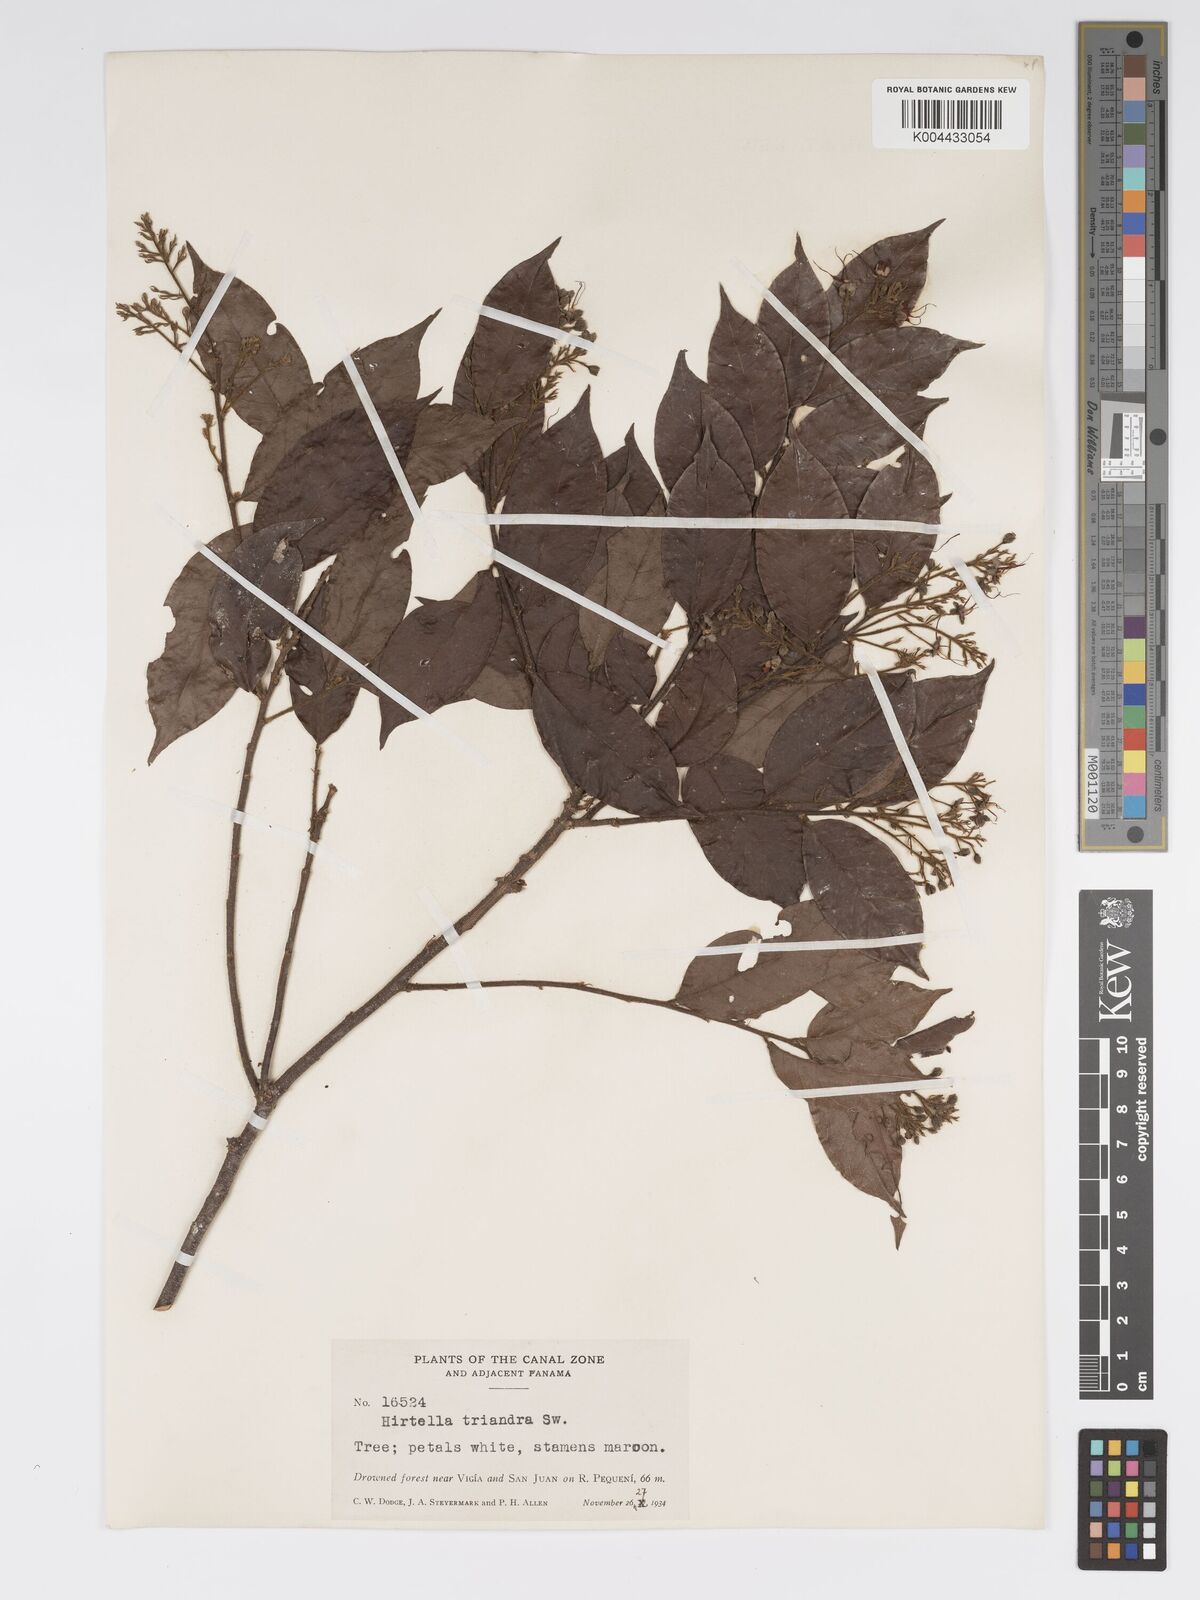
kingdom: Plantae
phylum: Tracheophyta
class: Magnoliopsida
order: Malpighiales
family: Chrysobalanaceae
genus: Hirtella
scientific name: Hirtella triandra
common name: Hairy plum
